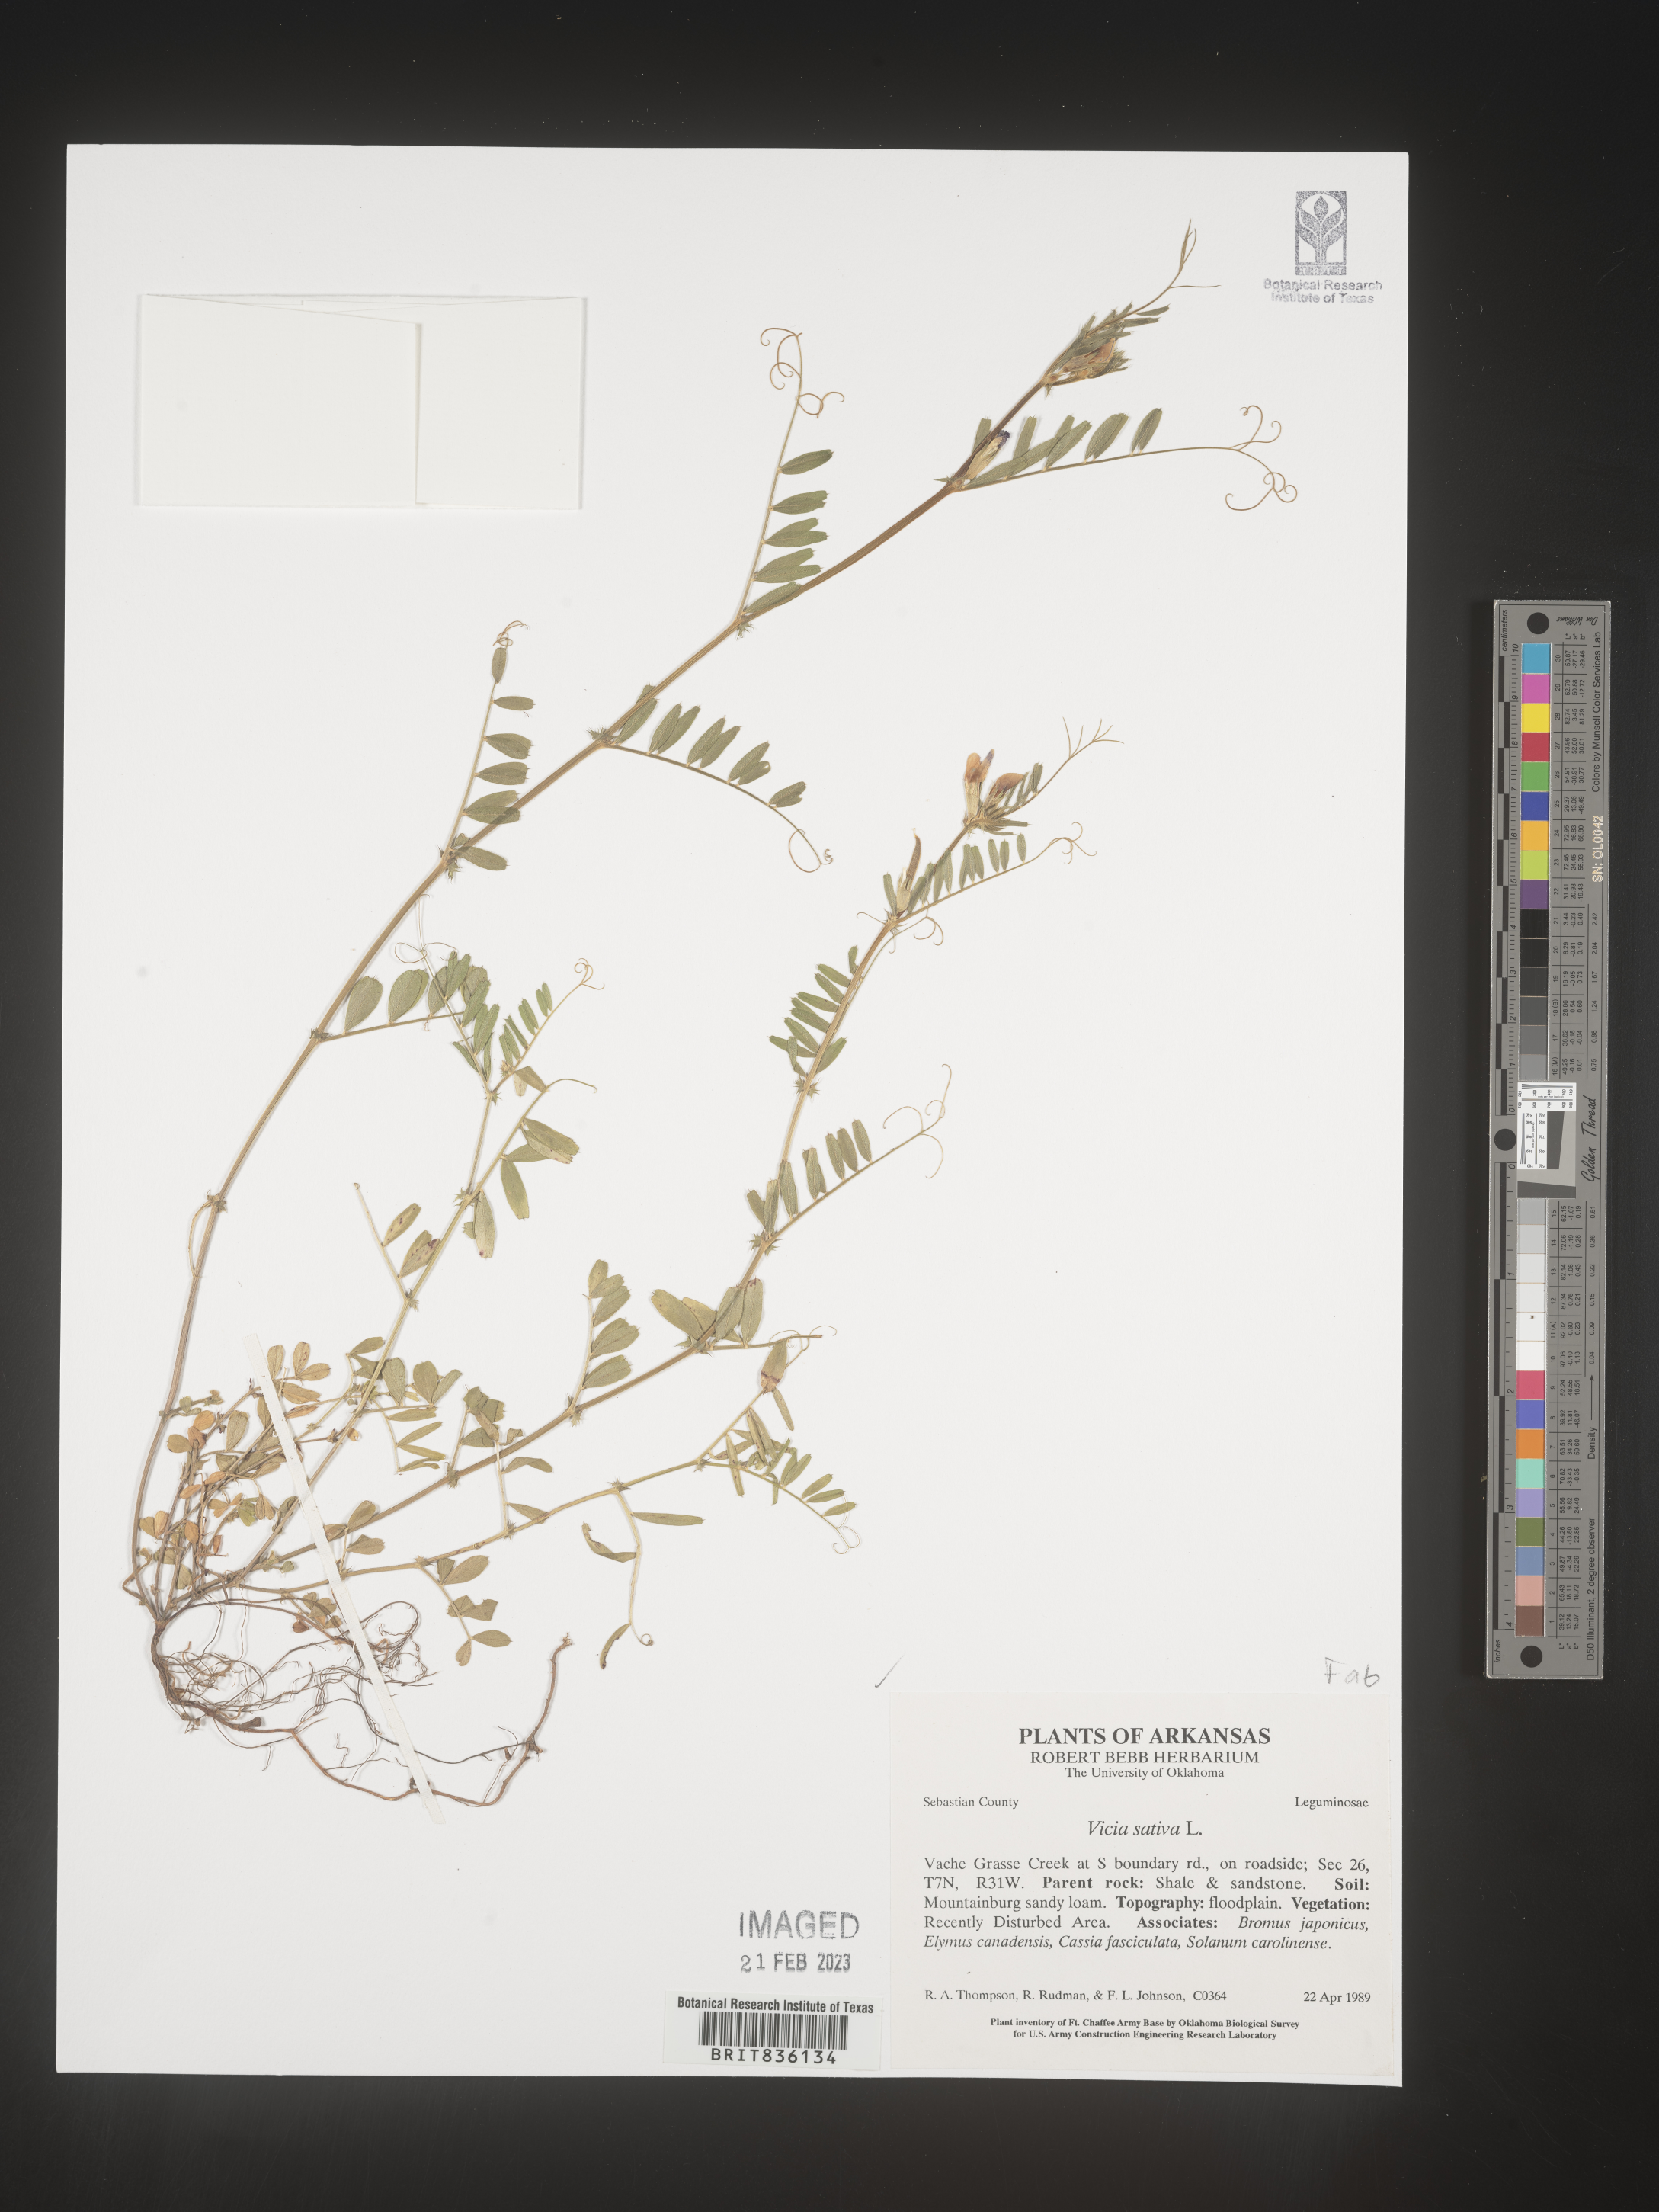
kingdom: Plantae
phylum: Tracheophyta
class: Magnoliopsida
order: Fabales
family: Fabaceae
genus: Vicia
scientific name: Vicia sativa
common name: Garden vetch
